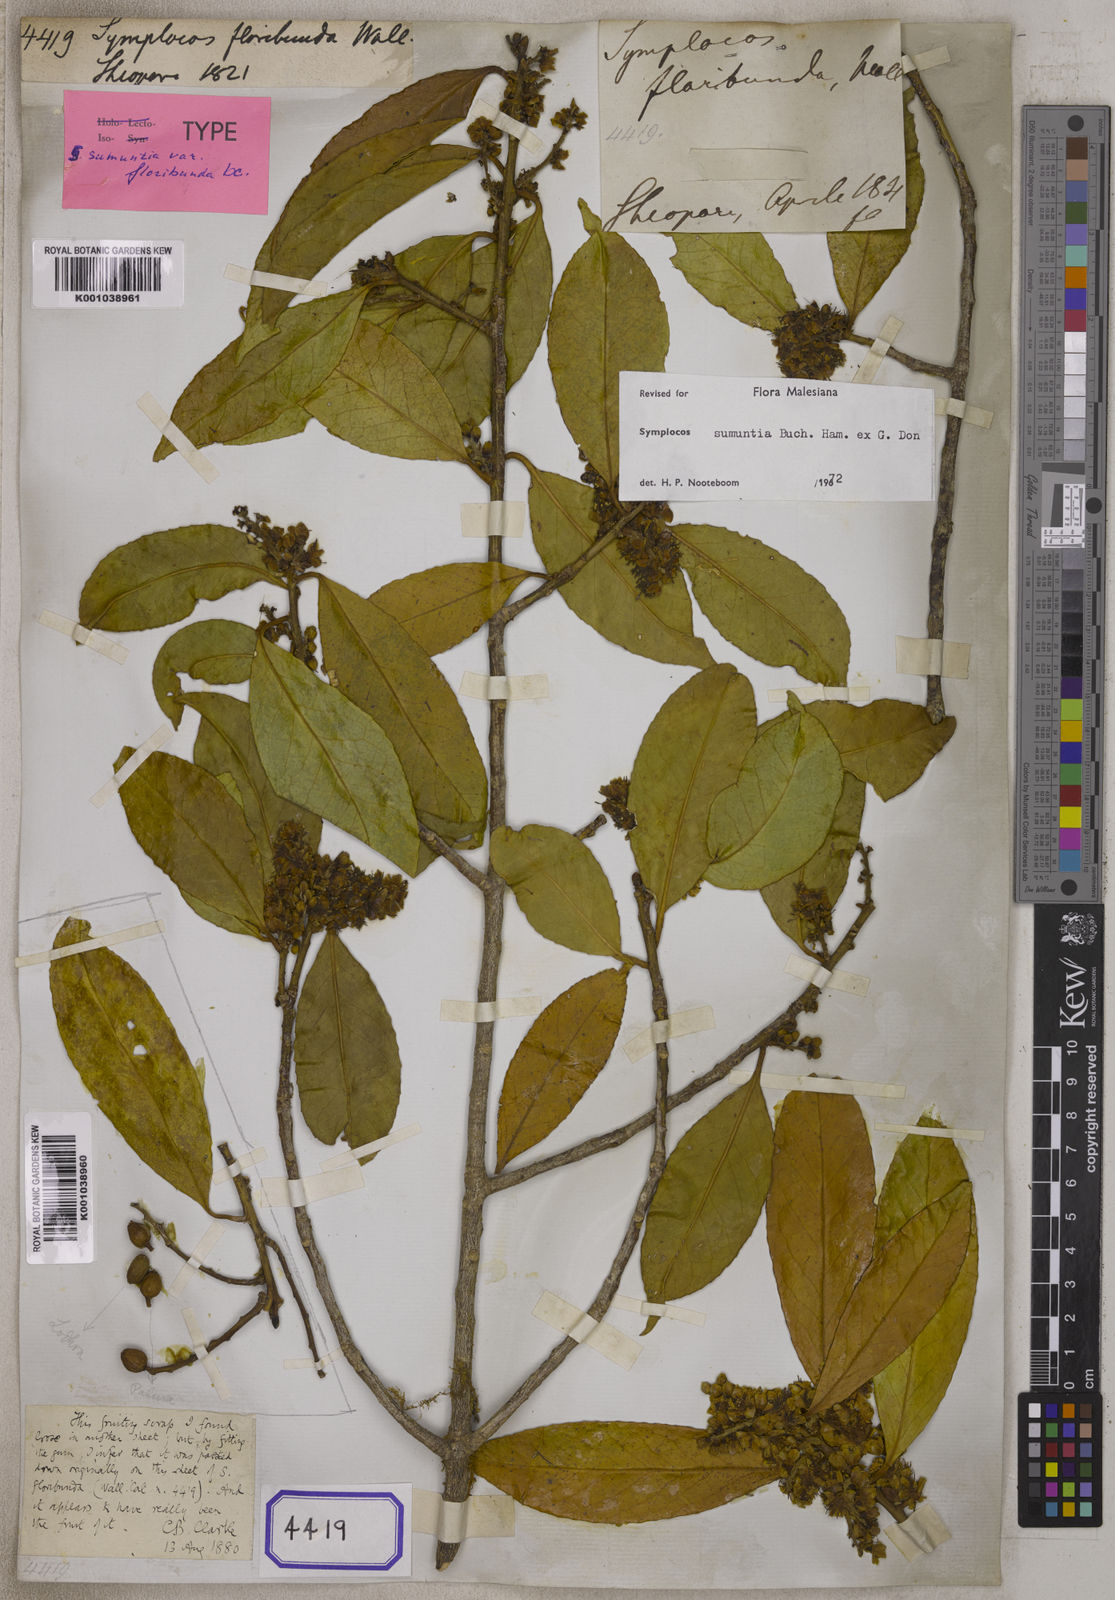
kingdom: Plantae
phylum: Tracheophyta
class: Magnoliopsida
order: Ericales
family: Symplocaceae
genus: Symplocos
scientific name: Symplocos sumuntia
